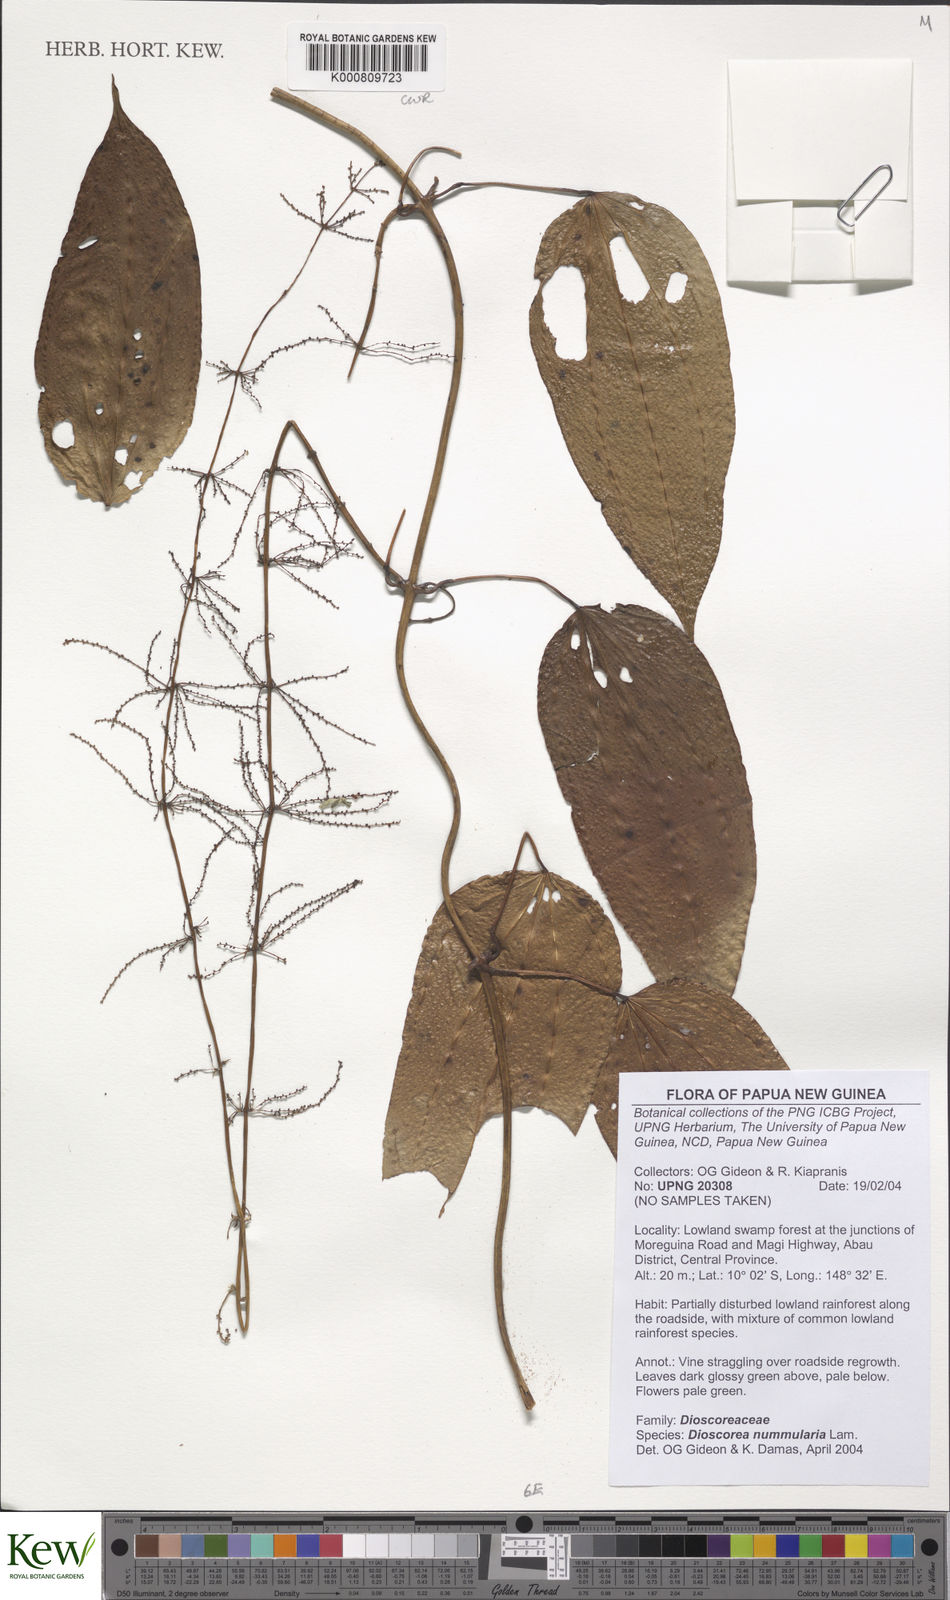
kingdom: Plantae
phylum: Tracheophyta
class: Liliopsida
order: Dioscoreales
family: Dioscoreaceae
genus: Dioscorea
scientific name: Dioscorea nummularia
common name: Pacific yam
